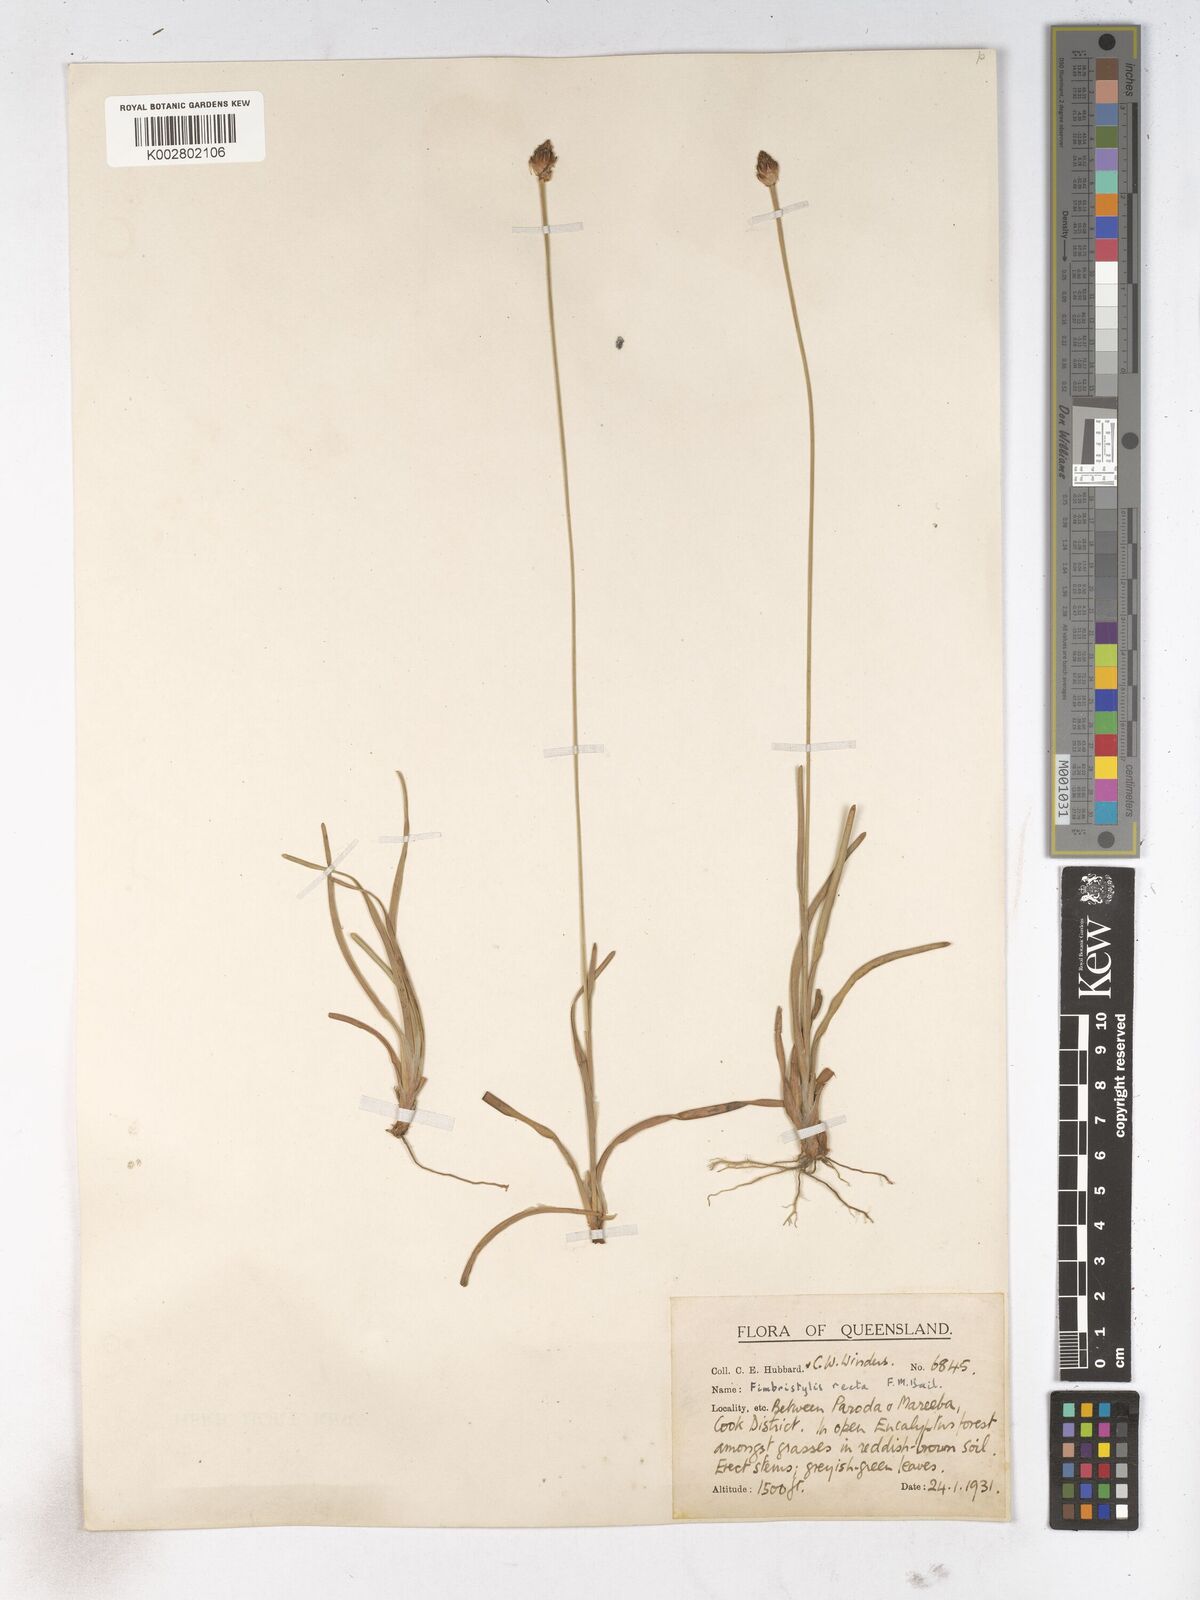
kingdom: Plantae
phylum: Tracheophyta
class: Liliopsida
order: Poales
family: Cyperaceae
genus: Fimbristylis
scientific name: Fimbristylis recta
